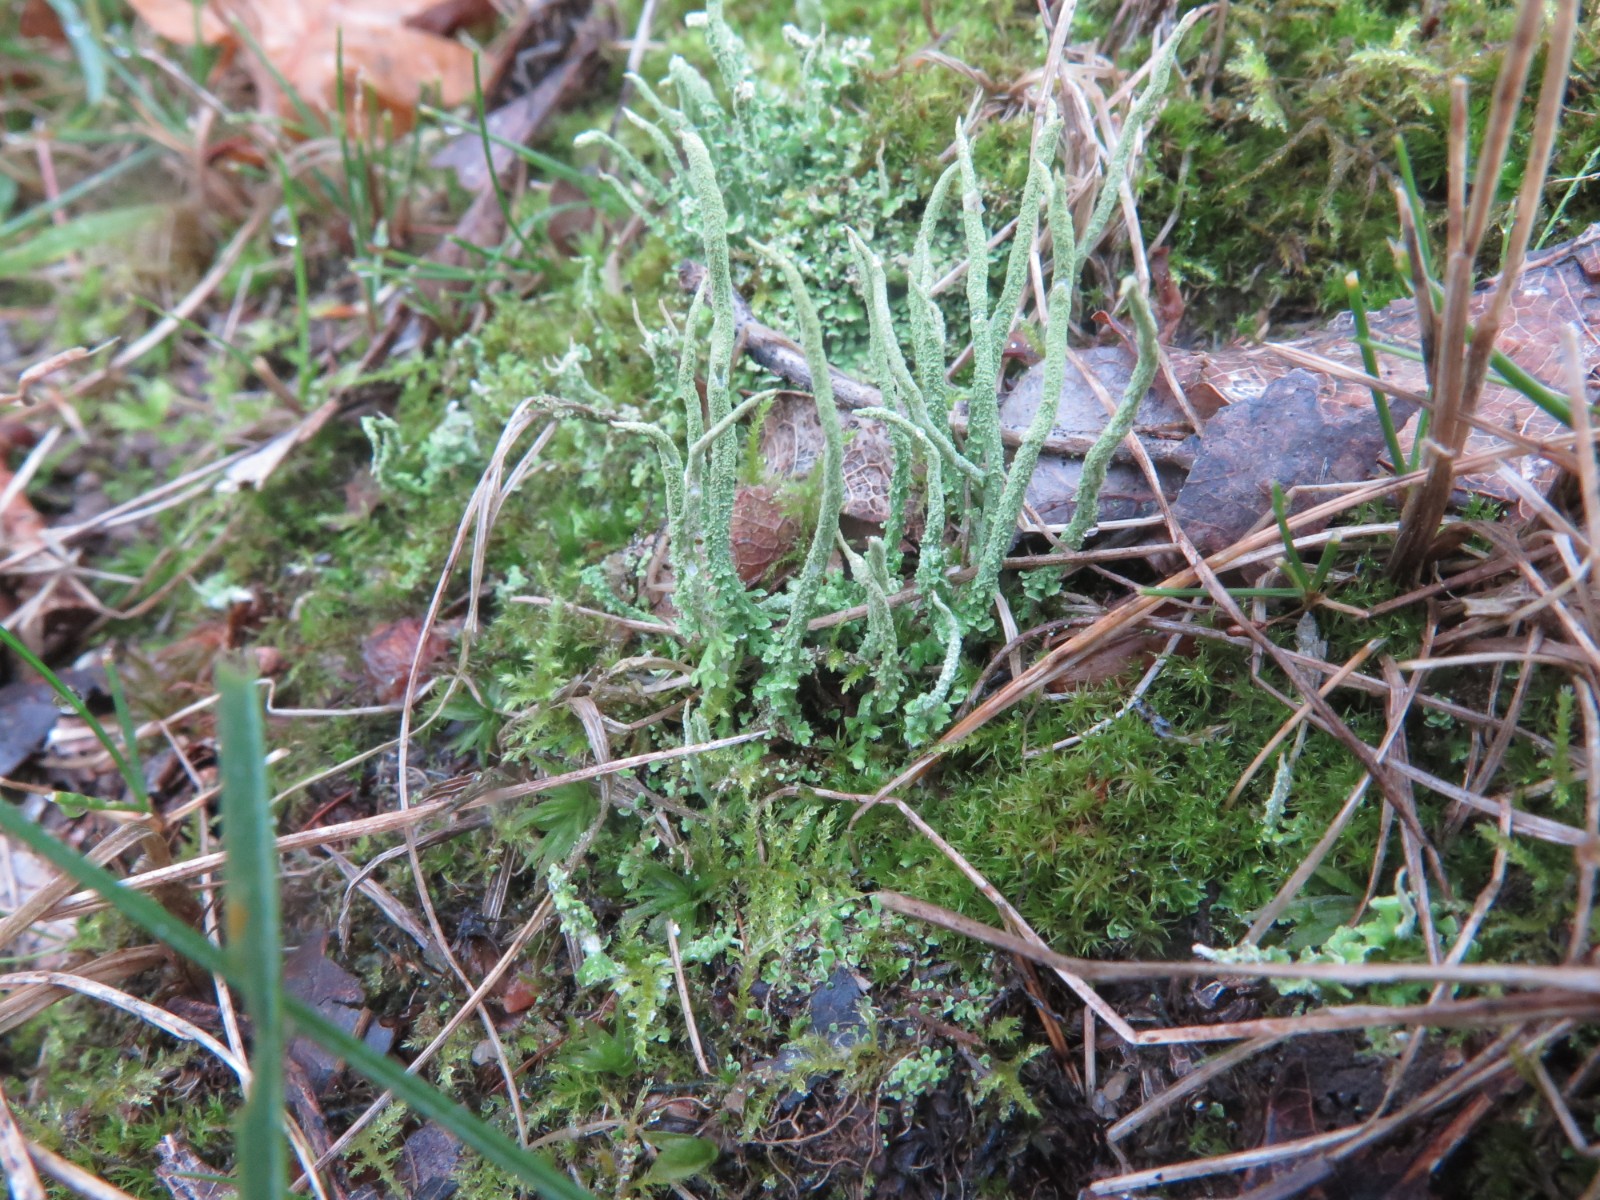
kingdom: Fungi
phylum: Ascomycota
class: Lecanoromycetes
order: Lecanorales
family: Cladoniaceae
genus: Cladonia
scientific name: Cladonia scabriuscula
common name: ru bægerlav
